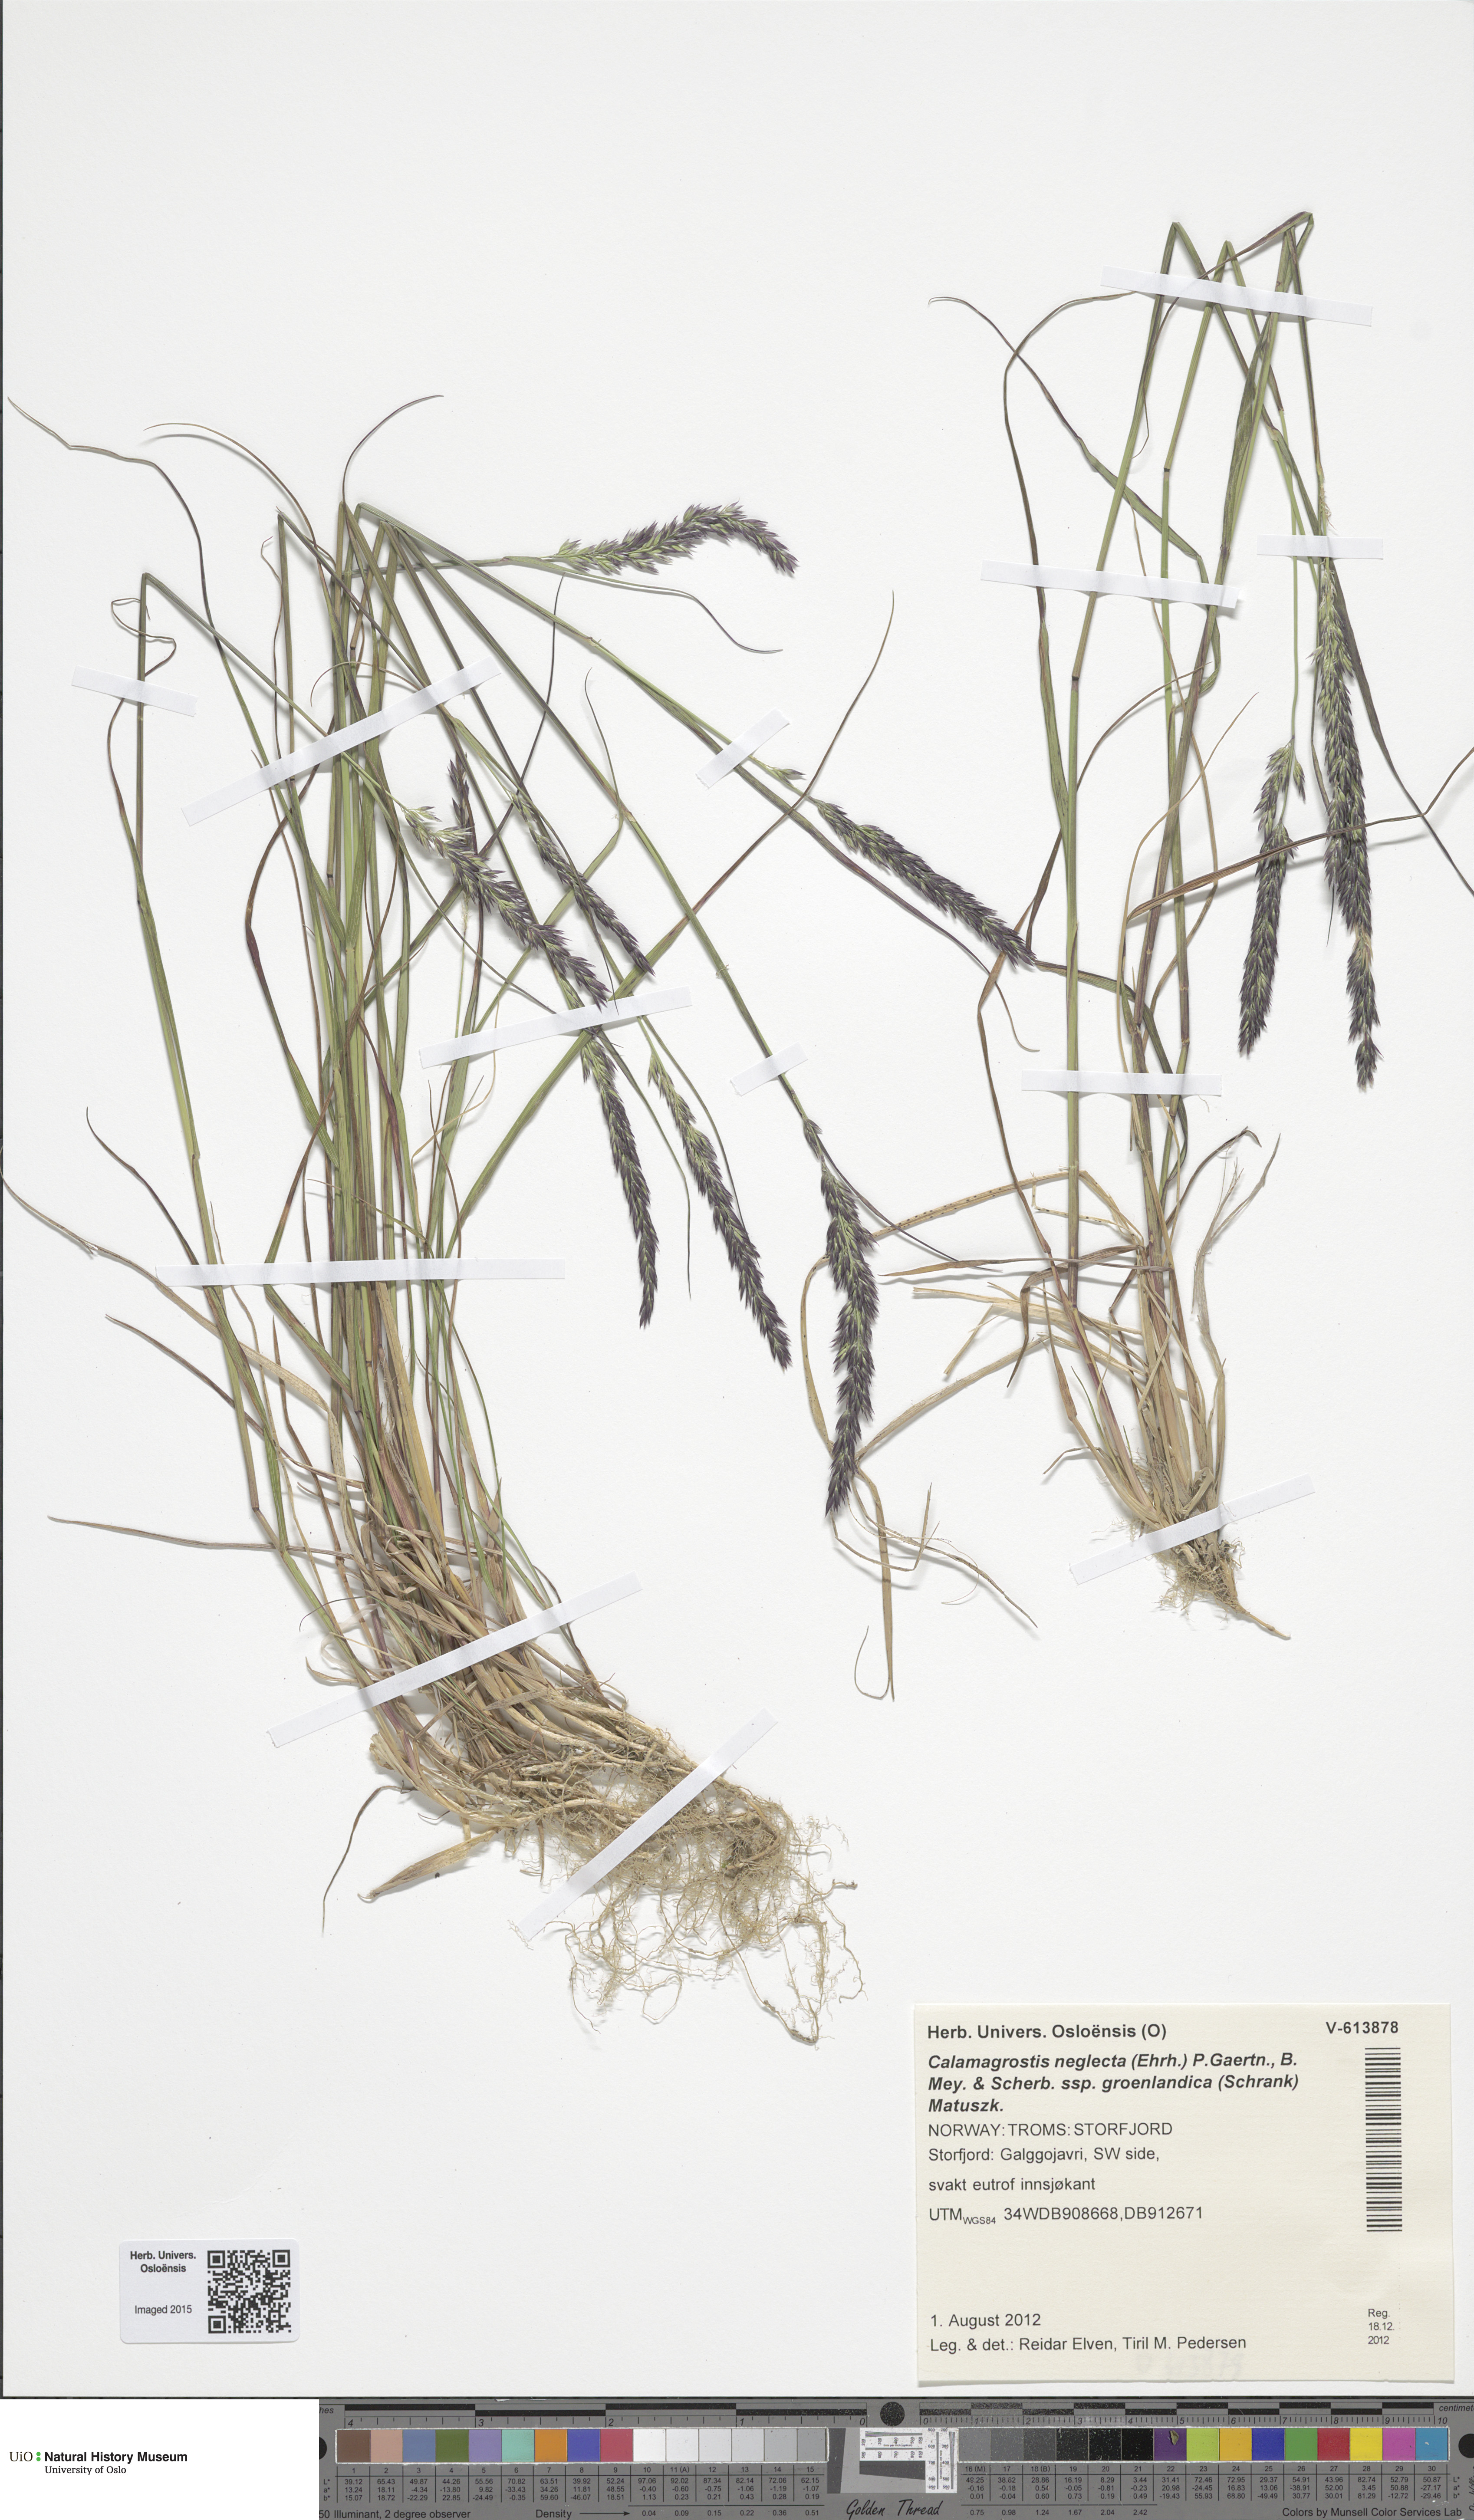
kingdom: Plantae
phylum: Tracheophyta
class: Liliopsida
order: Poales
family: Poaceae
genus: Calamagrostis
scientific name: Calamagrostis stricta
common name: Narrow small-reed
